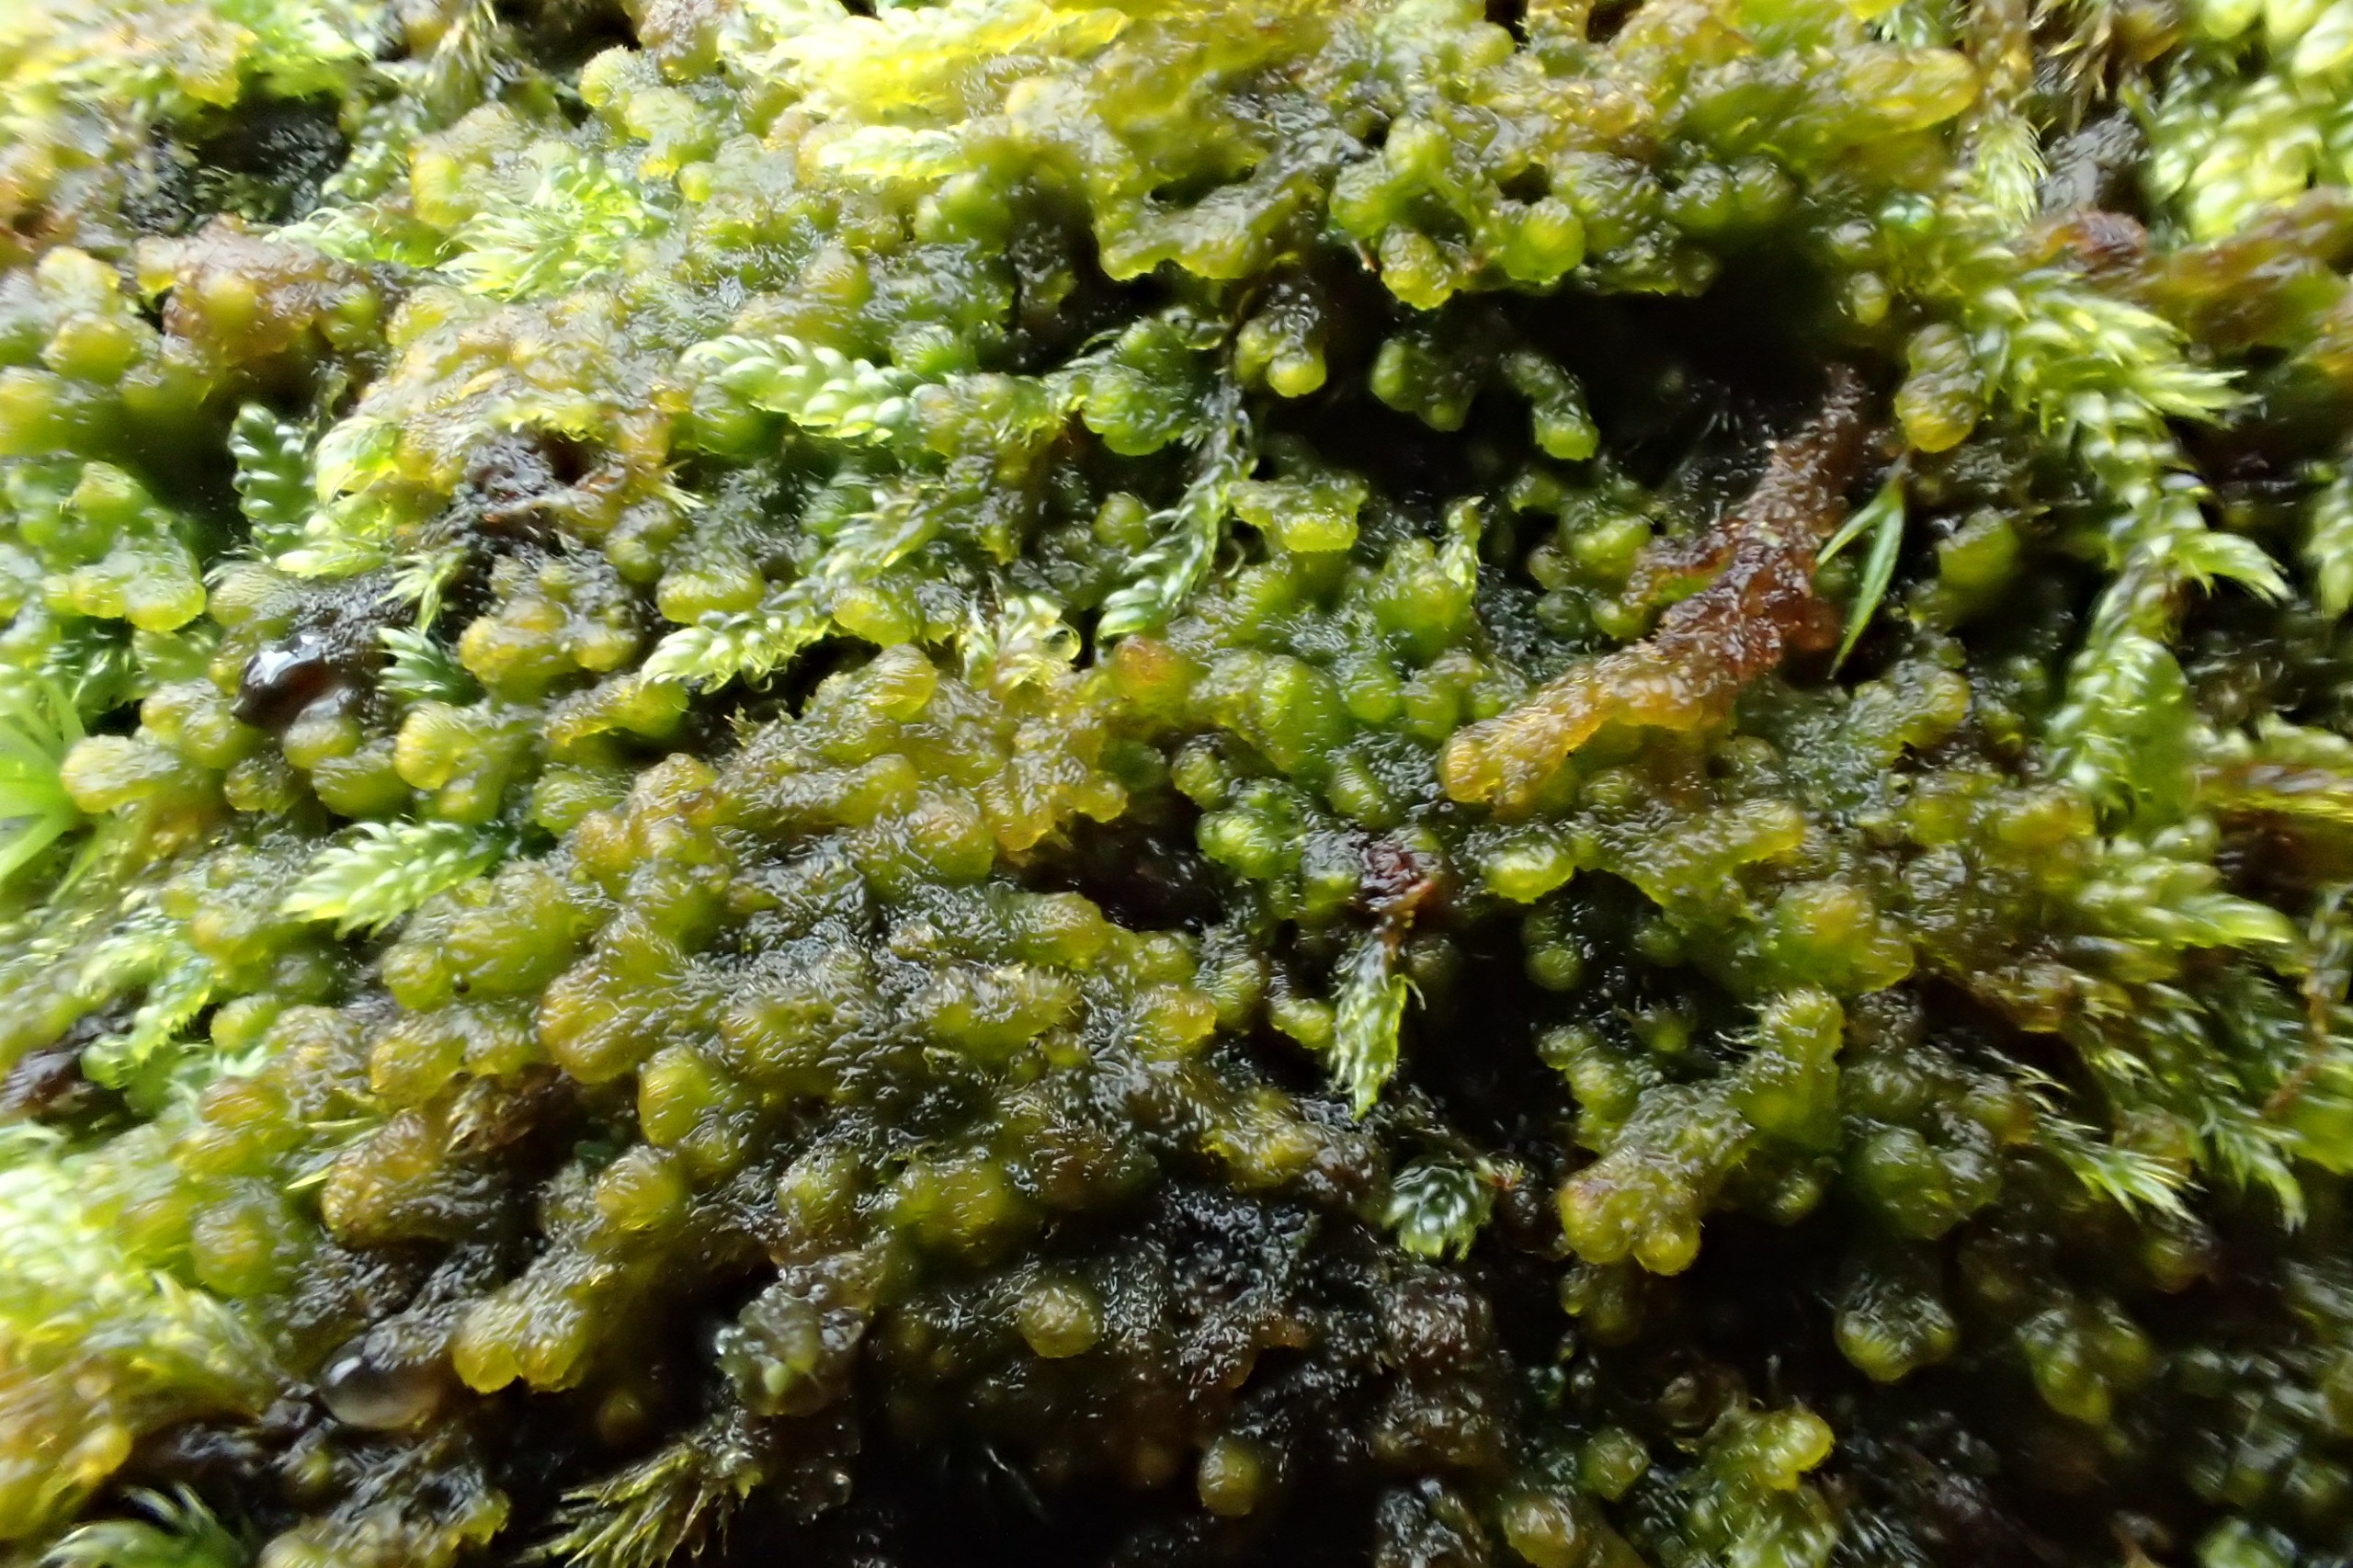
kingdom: Plantae
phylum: Marchantiophyta
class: Jungermanniopsida
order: Ptilidiales
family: Ptilidiaceae
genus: Ptilidium
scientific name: Ptilidium pulcherrimum
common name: Stub-frynsemos
